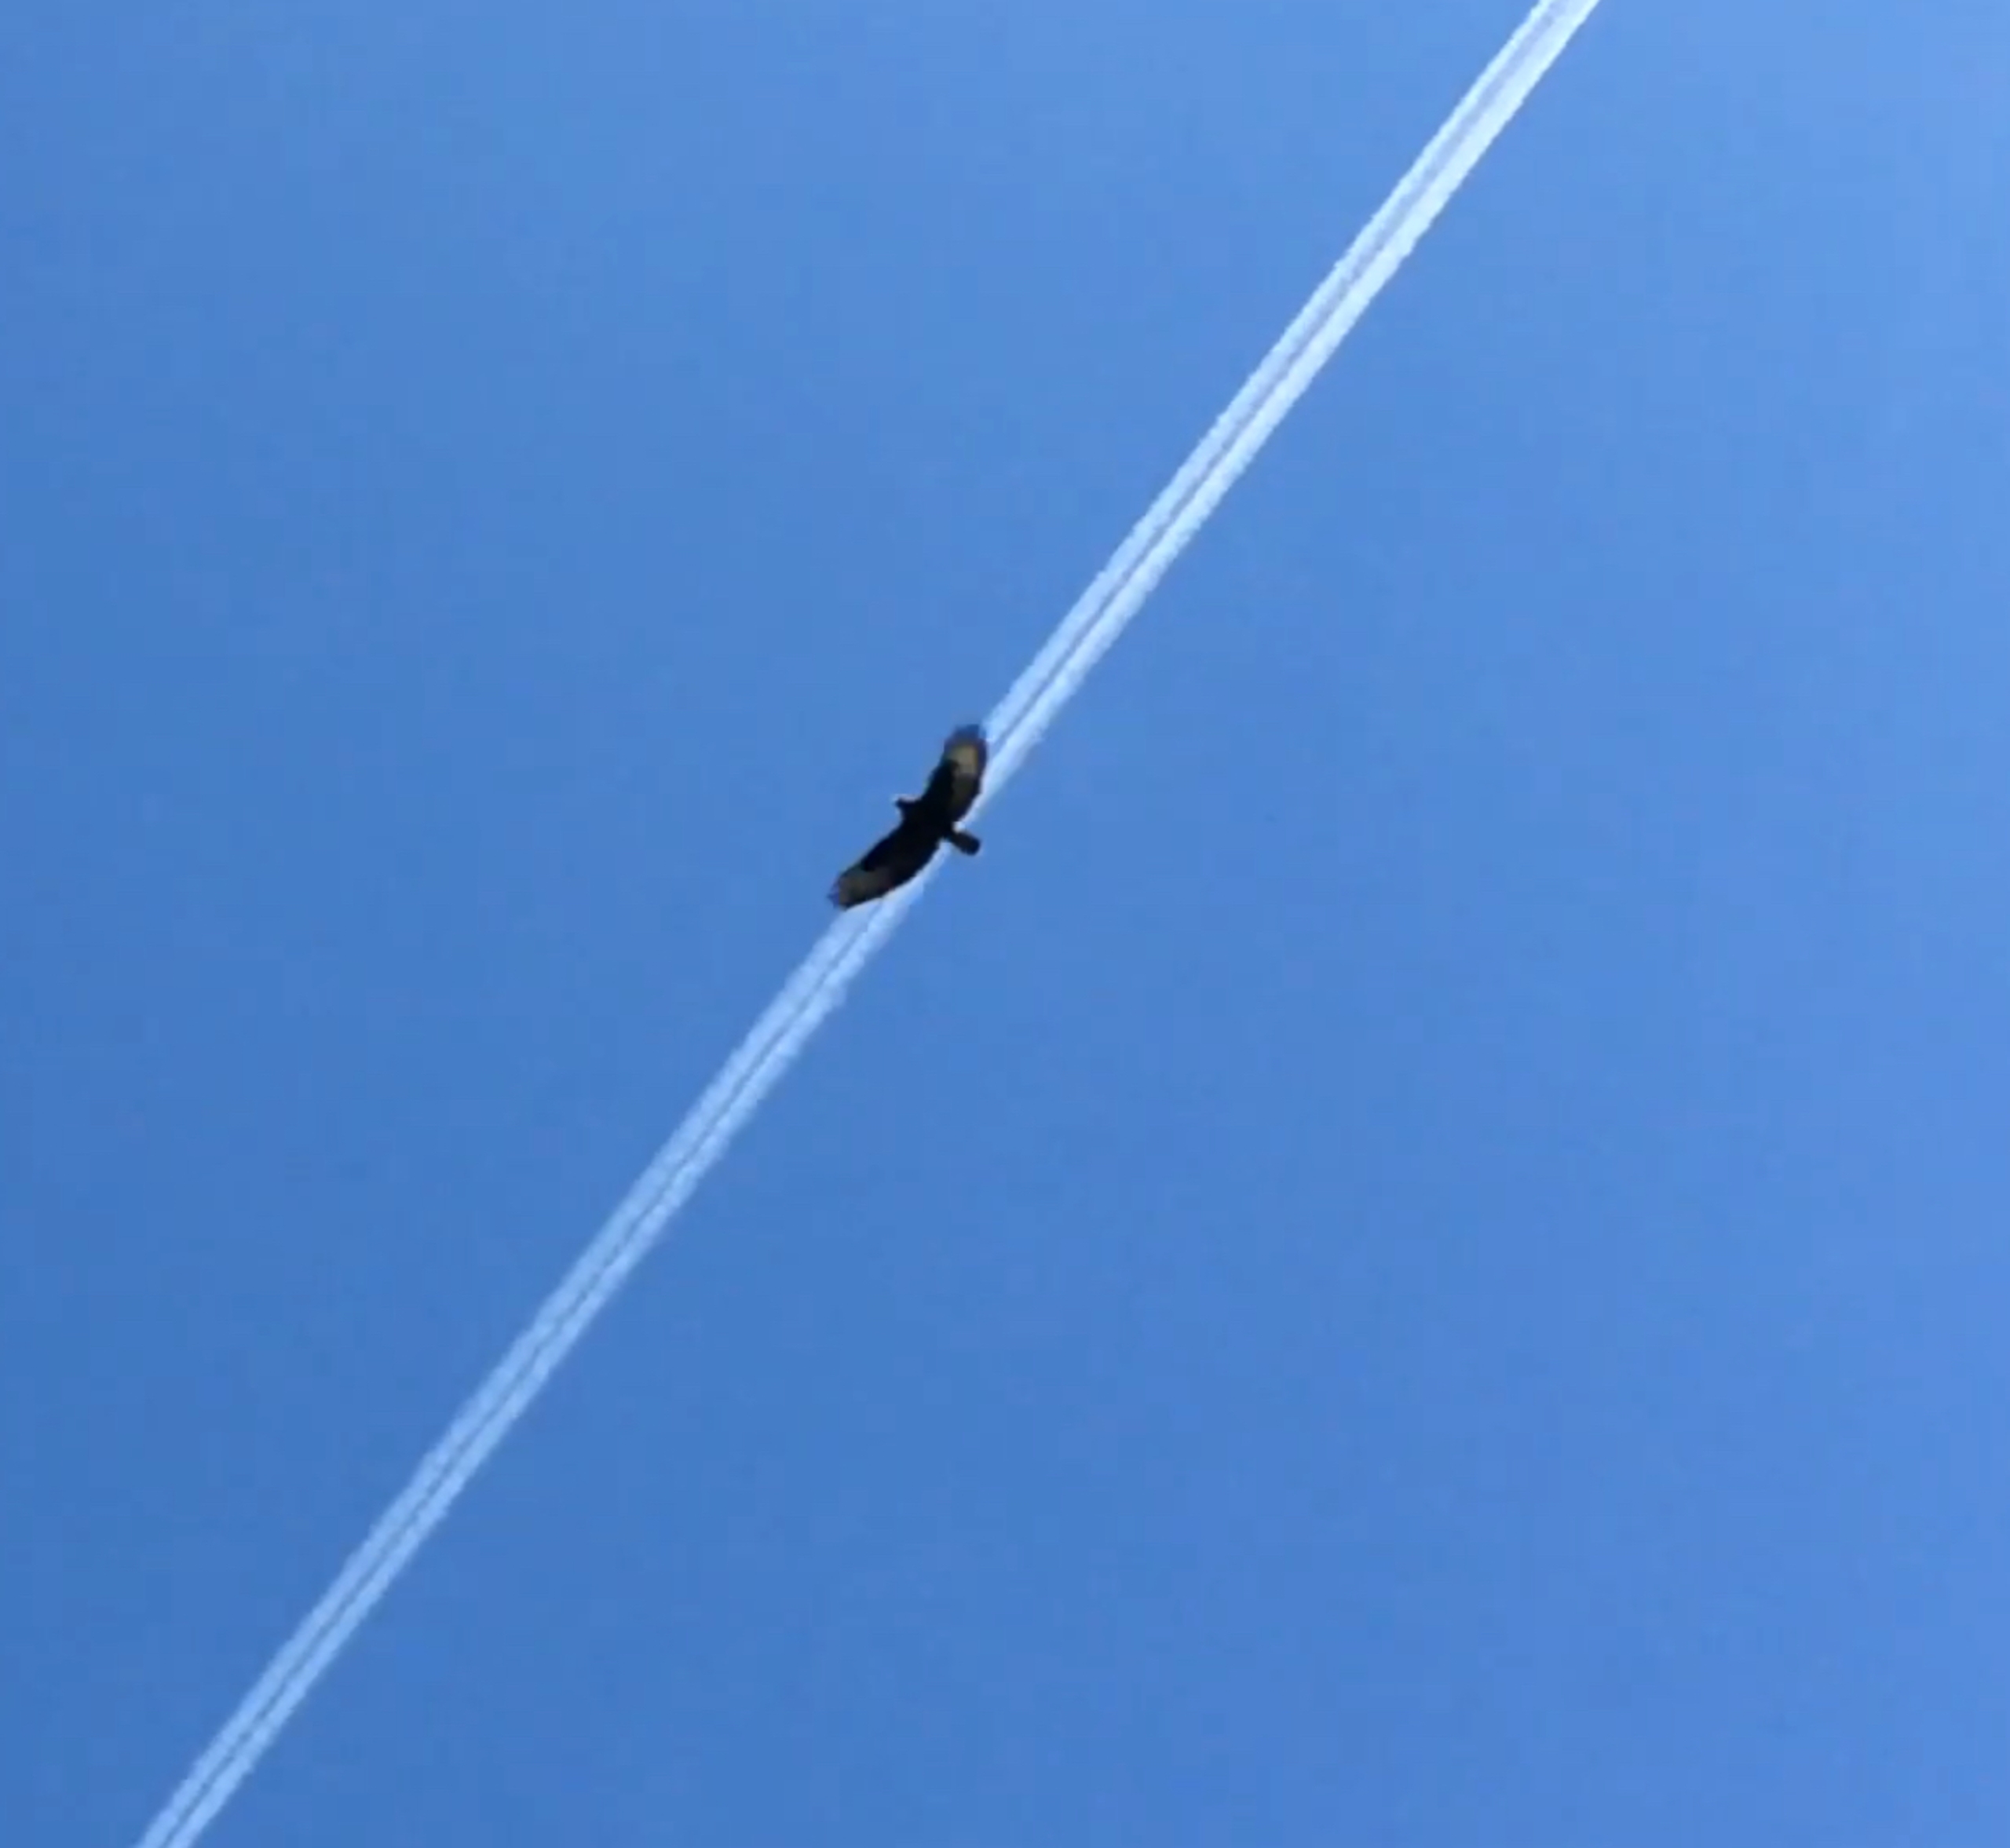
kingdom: Animalia
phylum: Chordata
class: Aves
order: Accipitriformes
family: Accipitridae
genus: Buteo
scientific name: Buteo buteo
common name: Musvåge
